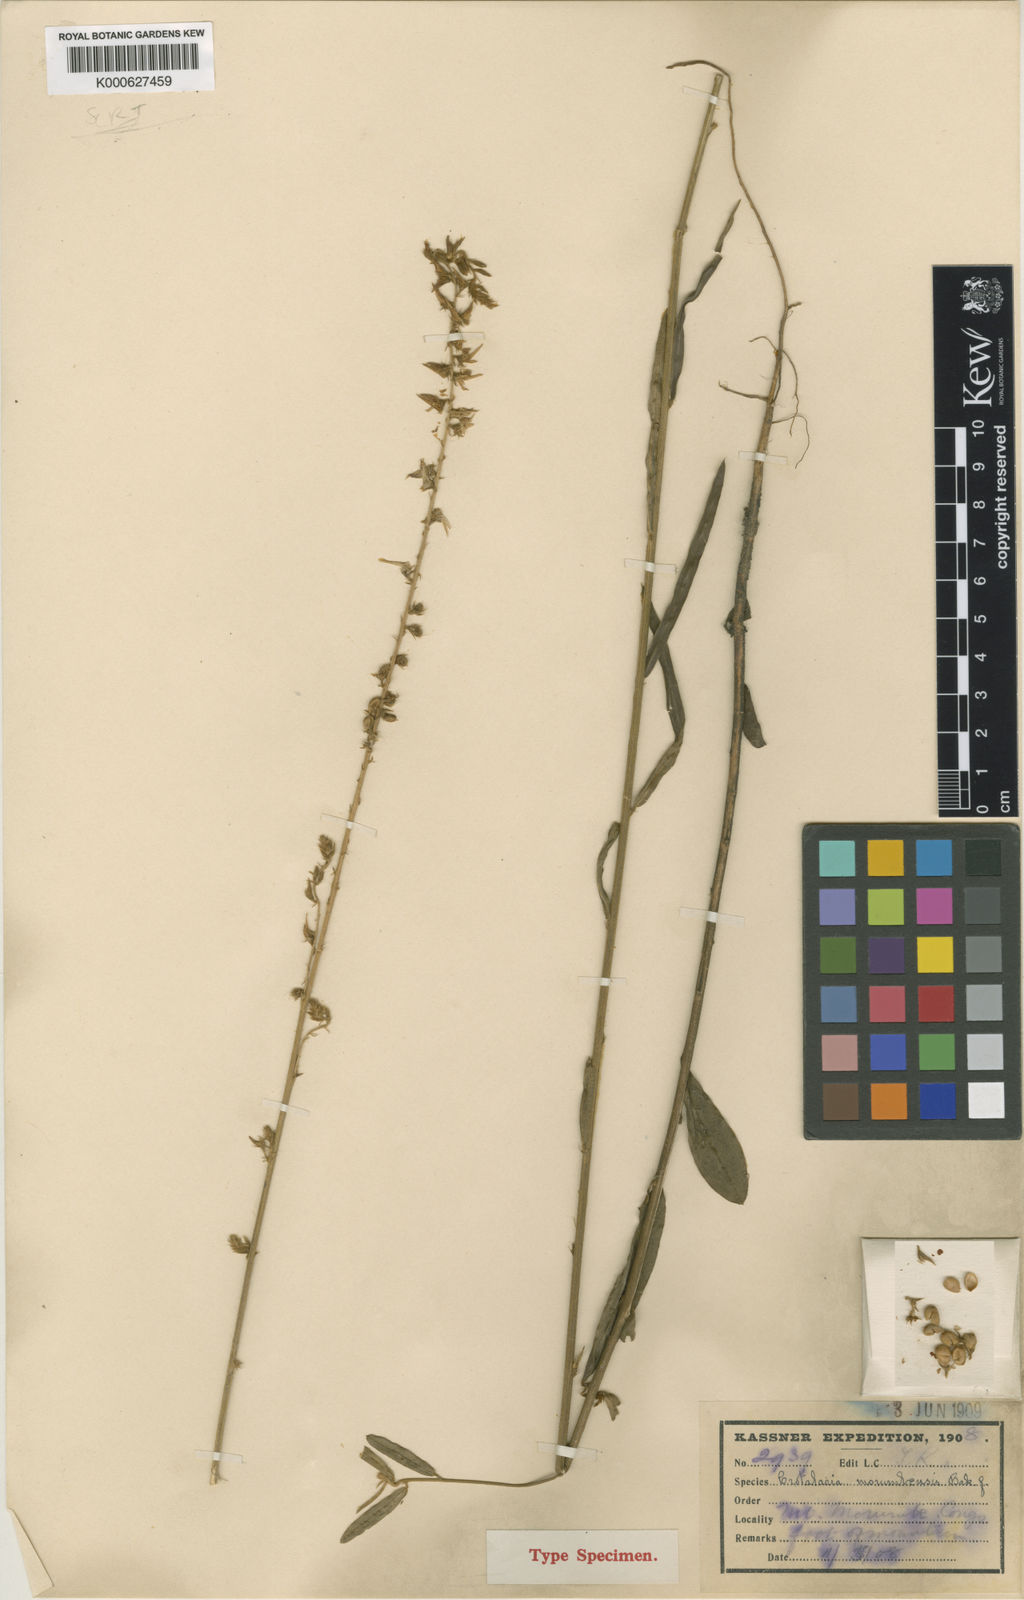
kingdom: Plantae
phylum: Tracheophyta
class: Magnoliopsida
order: Fabales
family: Fabaceae
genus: Crotalaria
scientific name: Crotalaria morumbensis
